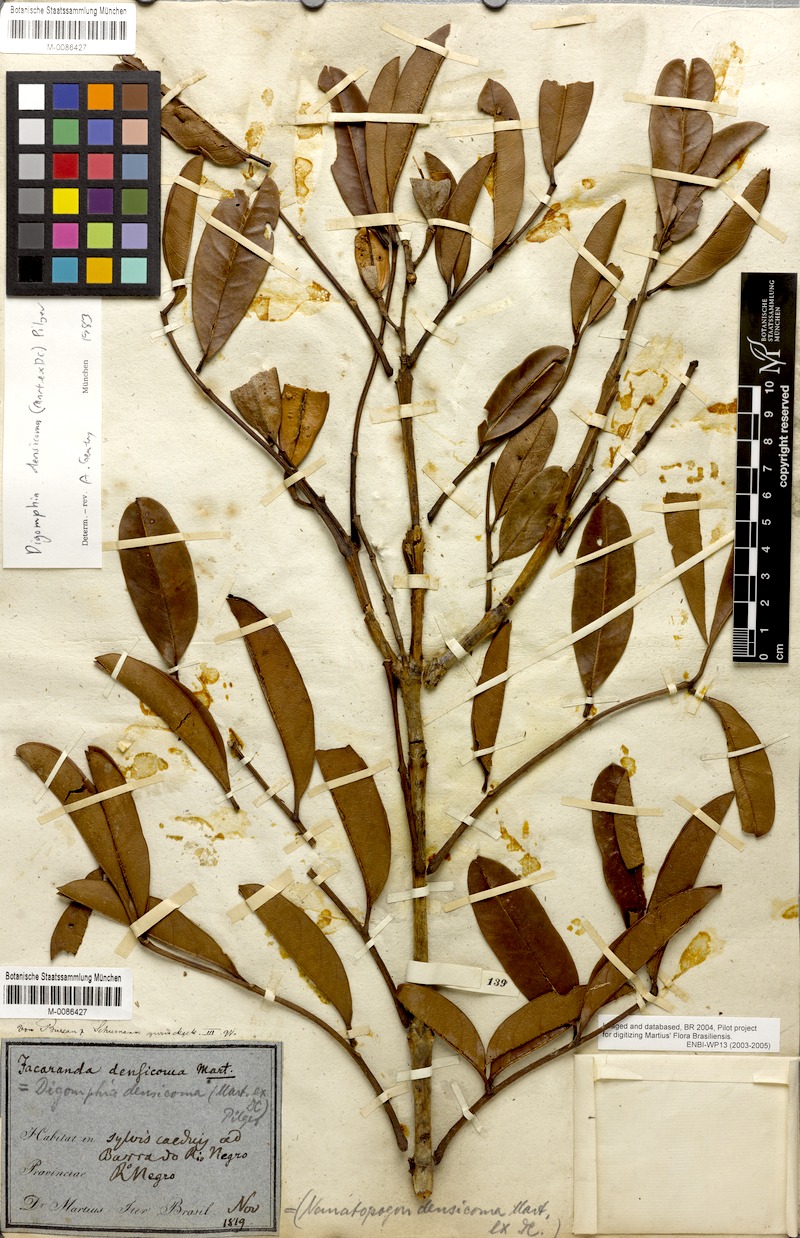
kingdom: Plantae
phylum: Tracheophyta
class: Magnoliopsida
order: Lamiales
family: Bignoniaceae
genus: Digomphia
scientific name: Digomphia densicoma
